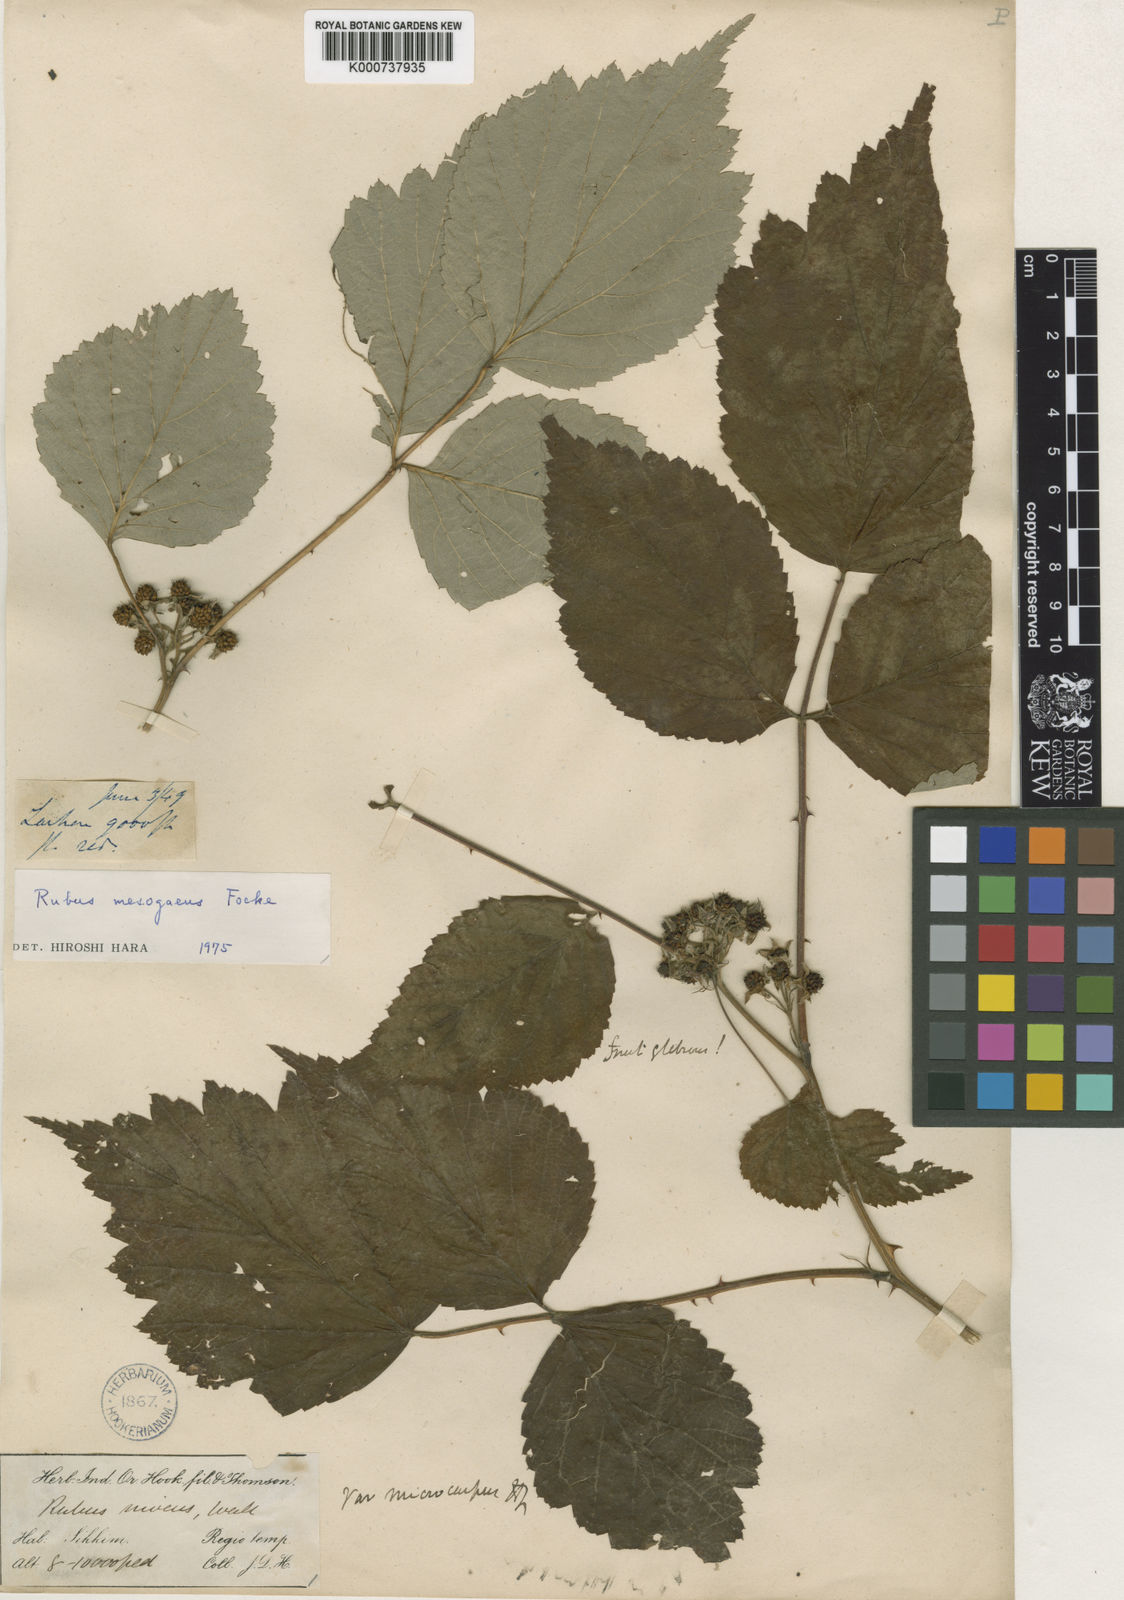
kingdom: Plantae
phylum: Tracheophyta
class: Magnoliopsida
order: Rosales
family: Rosaceae
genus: Rubus
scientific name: Rubus
